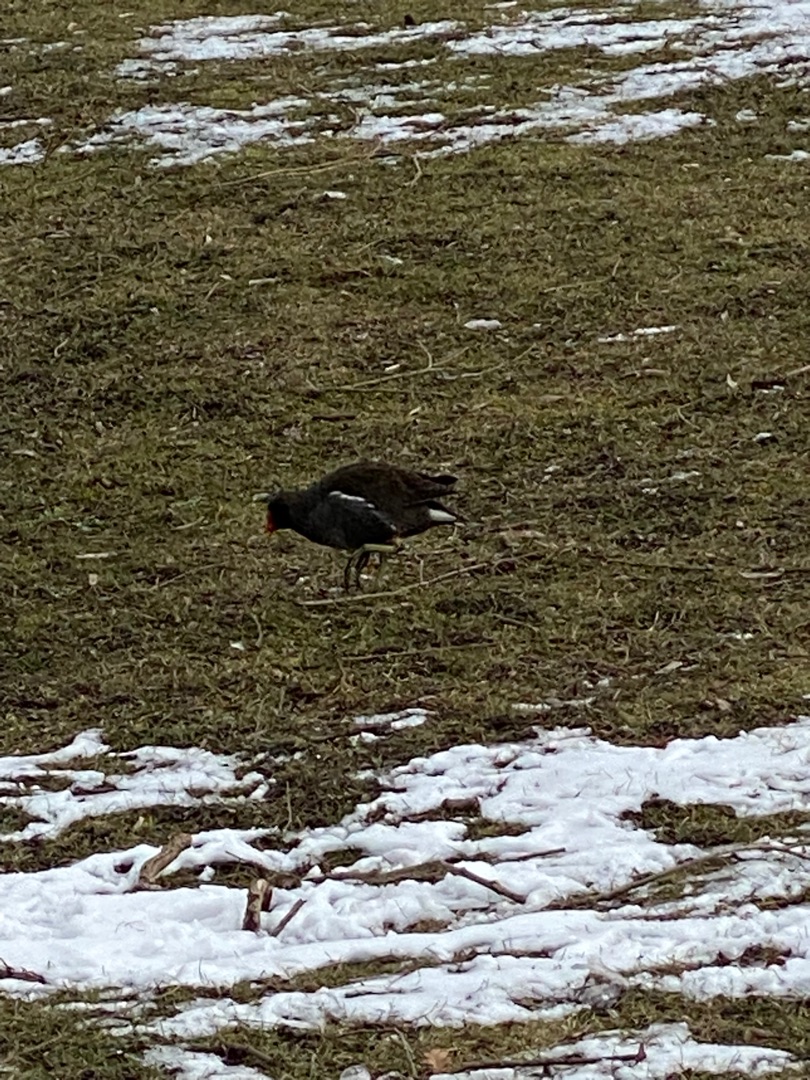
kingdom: Animalia
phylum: Chordata
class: Aves
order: Gruiformes
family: Rallidae
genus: Gallinula
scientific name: Gallinula chloropus
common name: Grønbenet rørhøne
